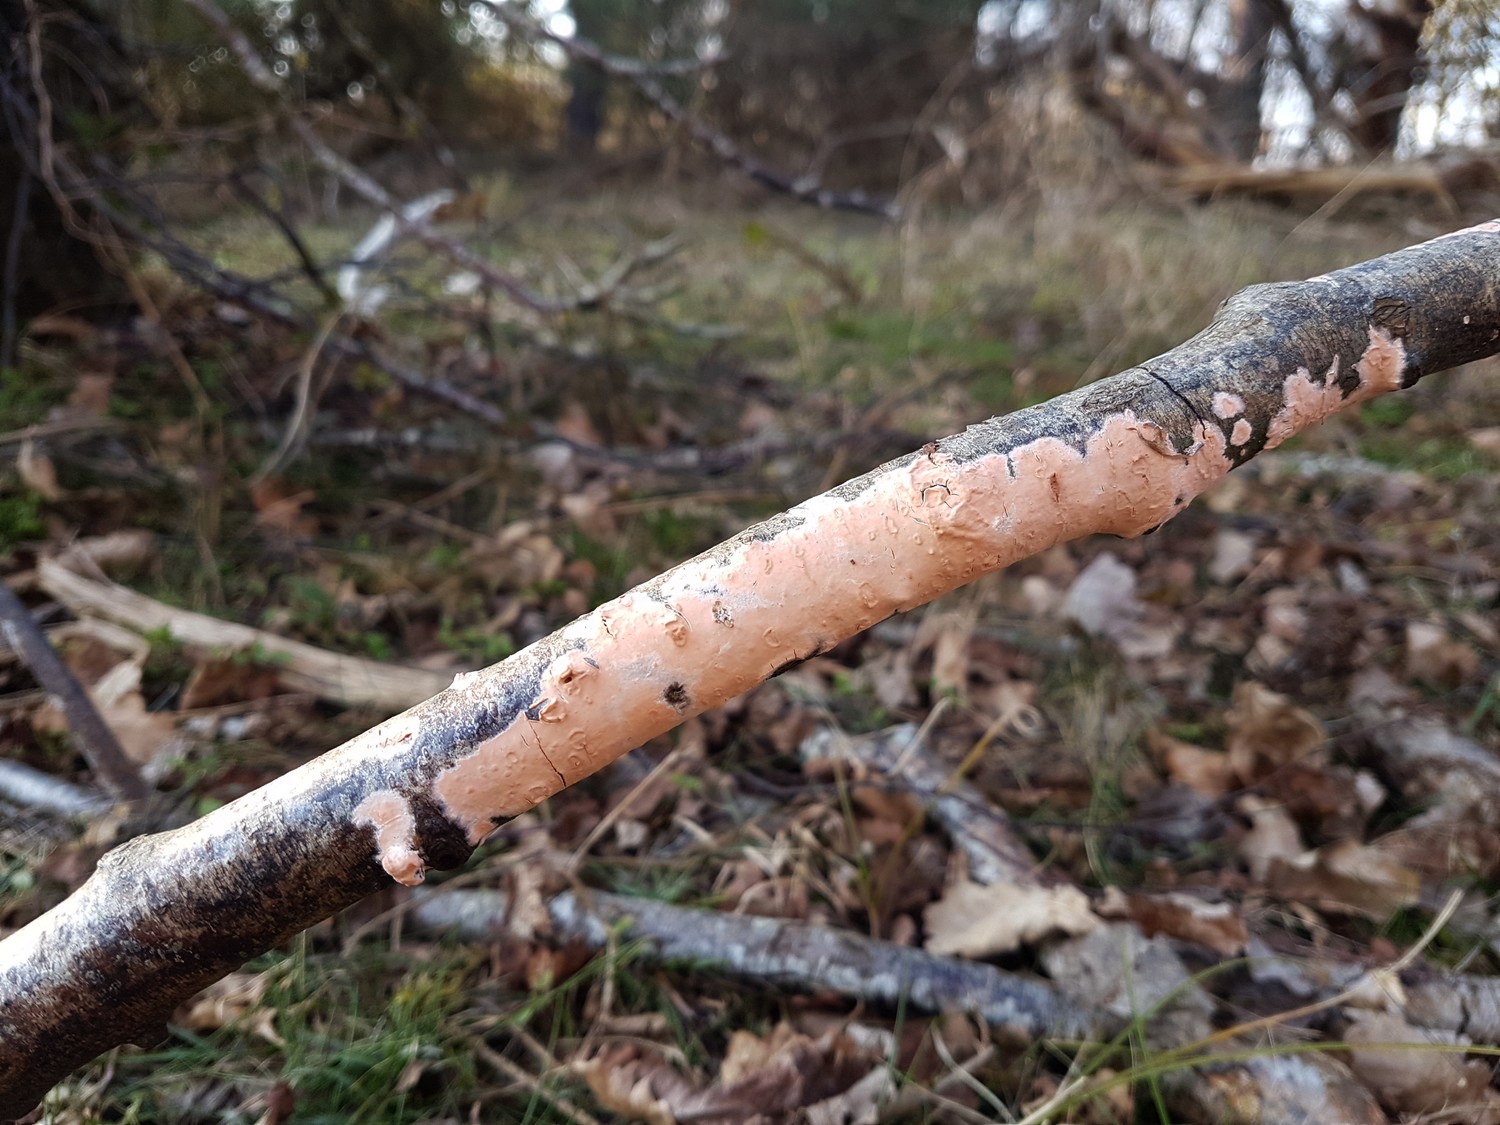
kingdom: Fungi
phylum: Basidiomycota
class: Agaricomycetes
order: Russulales
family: Peniophoraceae
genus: Peniophora
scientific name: Peniophora incarnata
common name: laksefarvet voksskind
